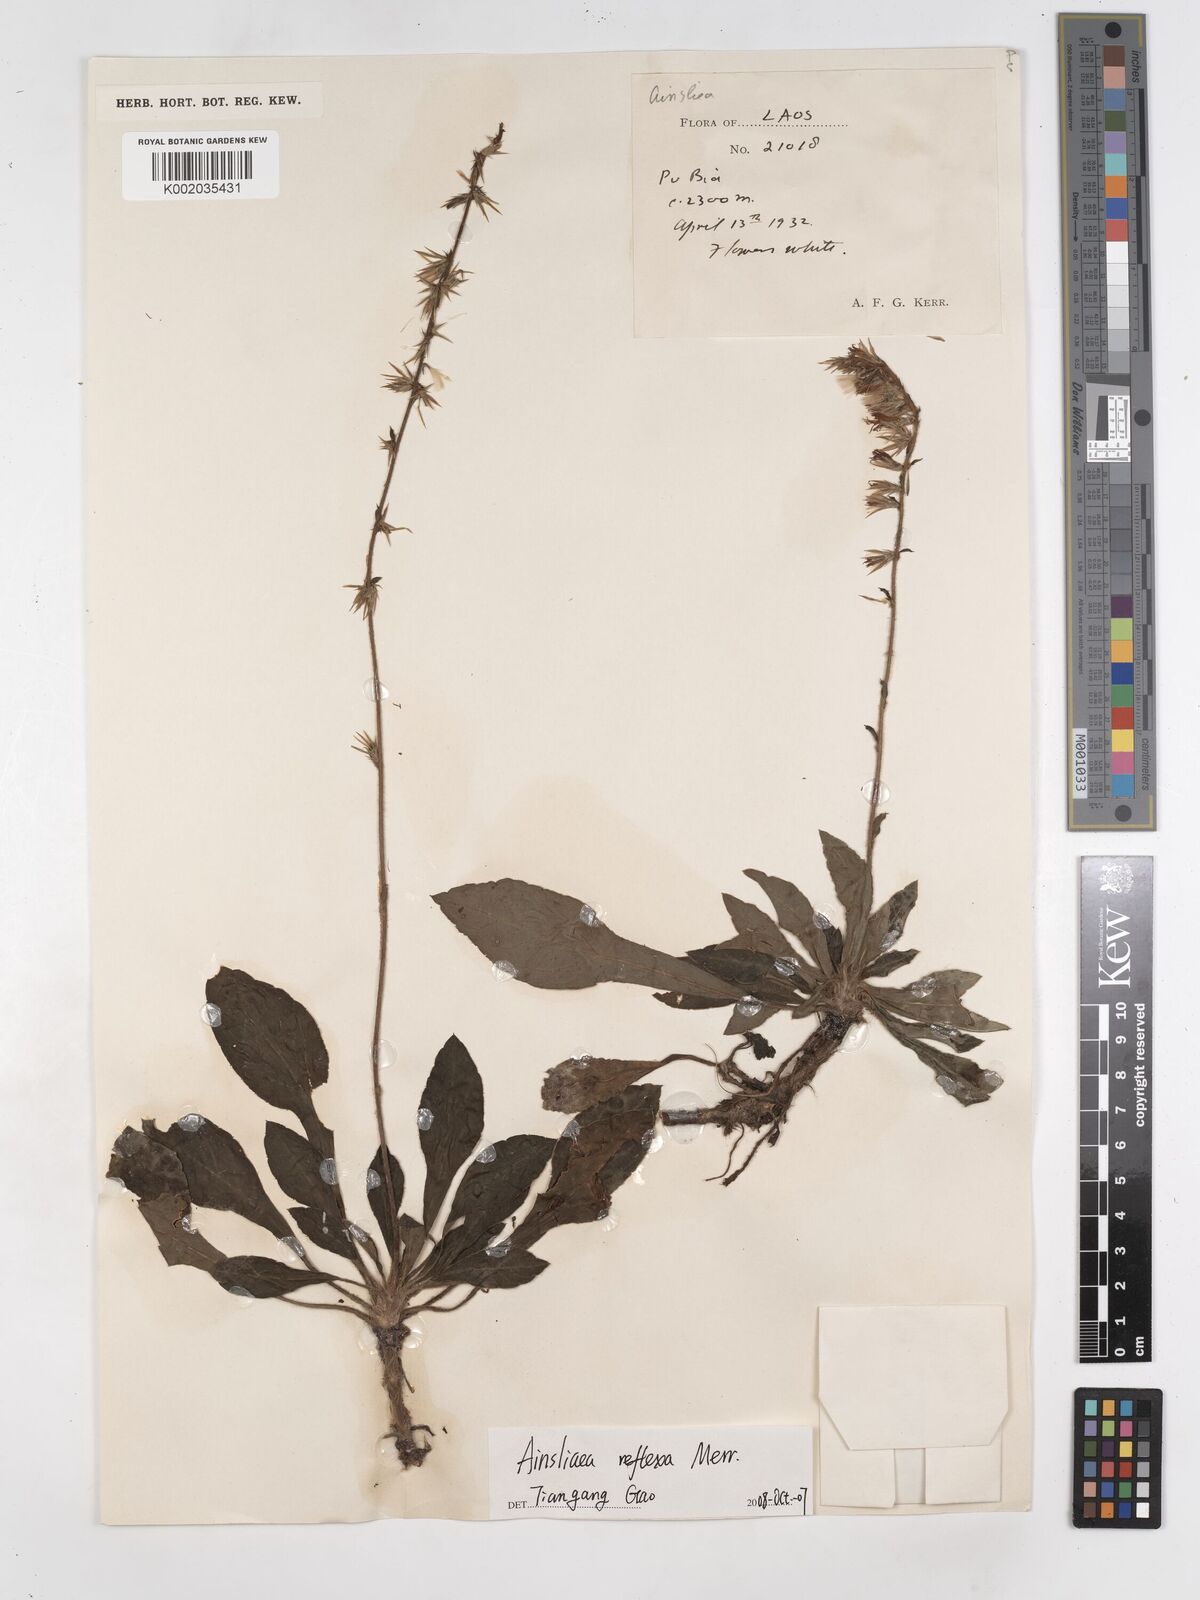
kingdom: Plantae
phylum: Tracheophyta
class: Magnoliopsida
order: Asterales
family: Asteraceae
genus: Ainsliaea
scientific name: Ainsliaea reflexa
